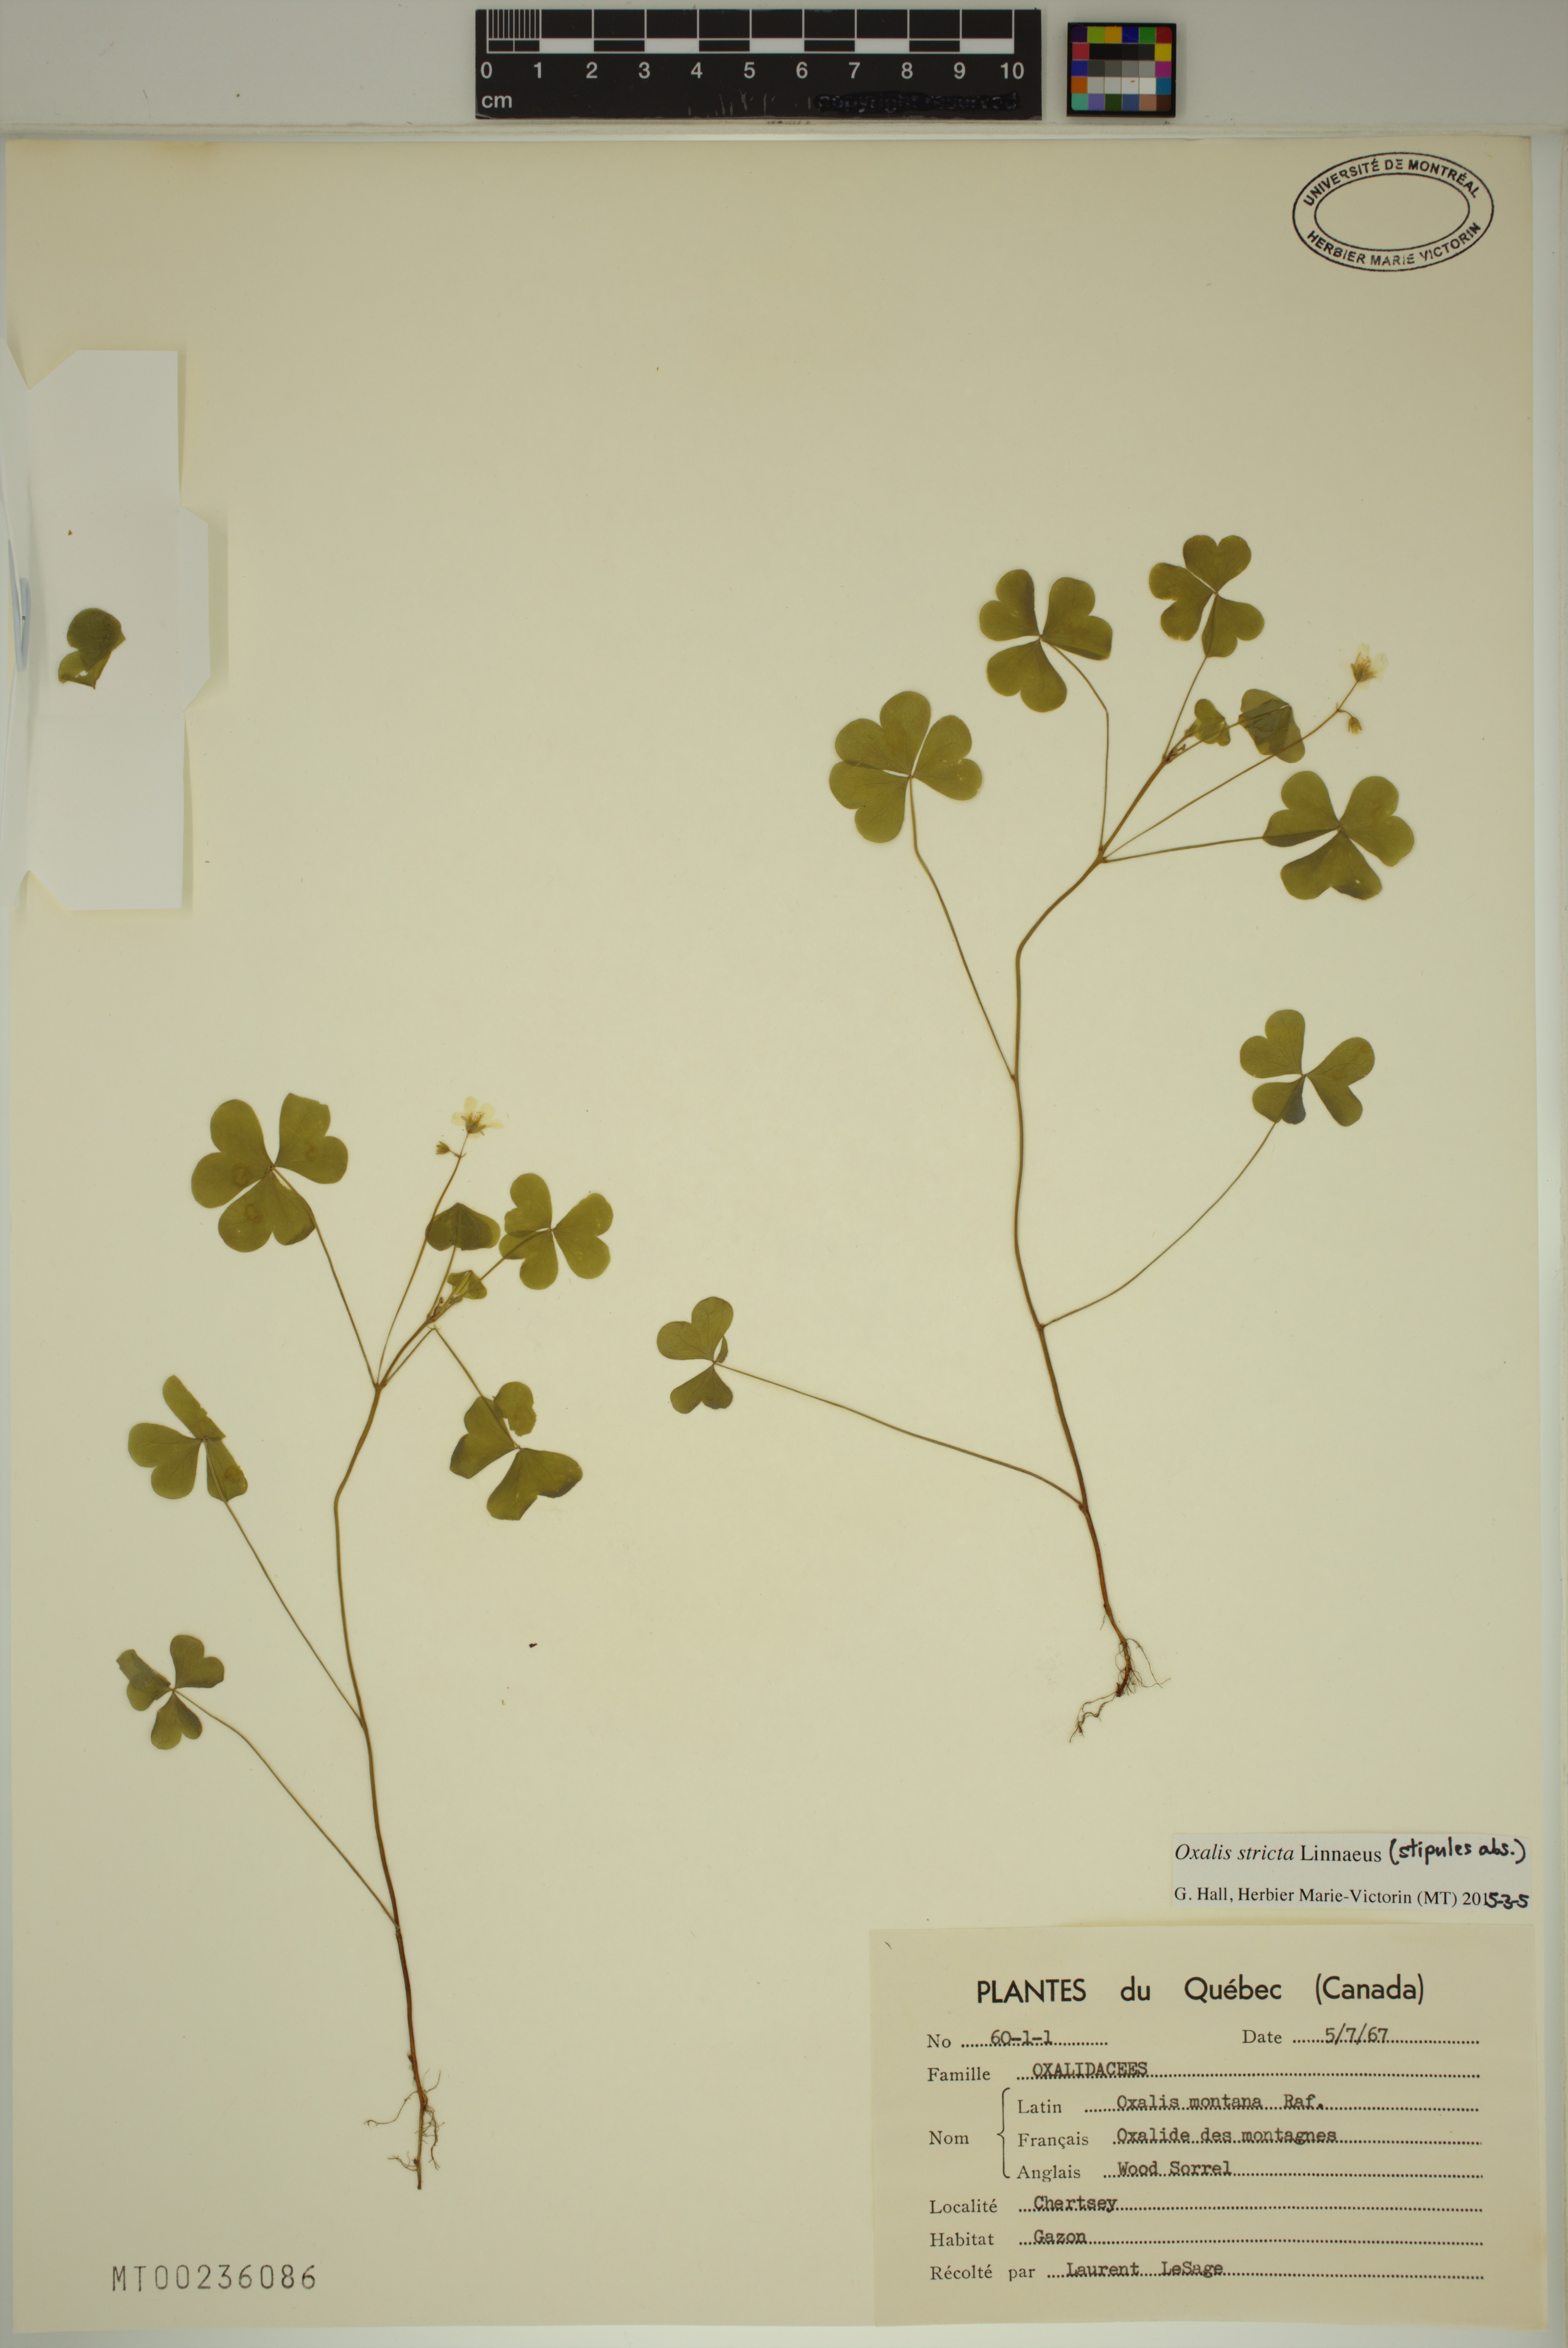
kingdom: Plantae
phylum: Tracheophyta
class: Magnoliopsida
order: Oxalidales
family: Oxalidaceae
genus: Oxalis
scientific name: Oxalis stricta
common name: Upright yellow-sorrel
